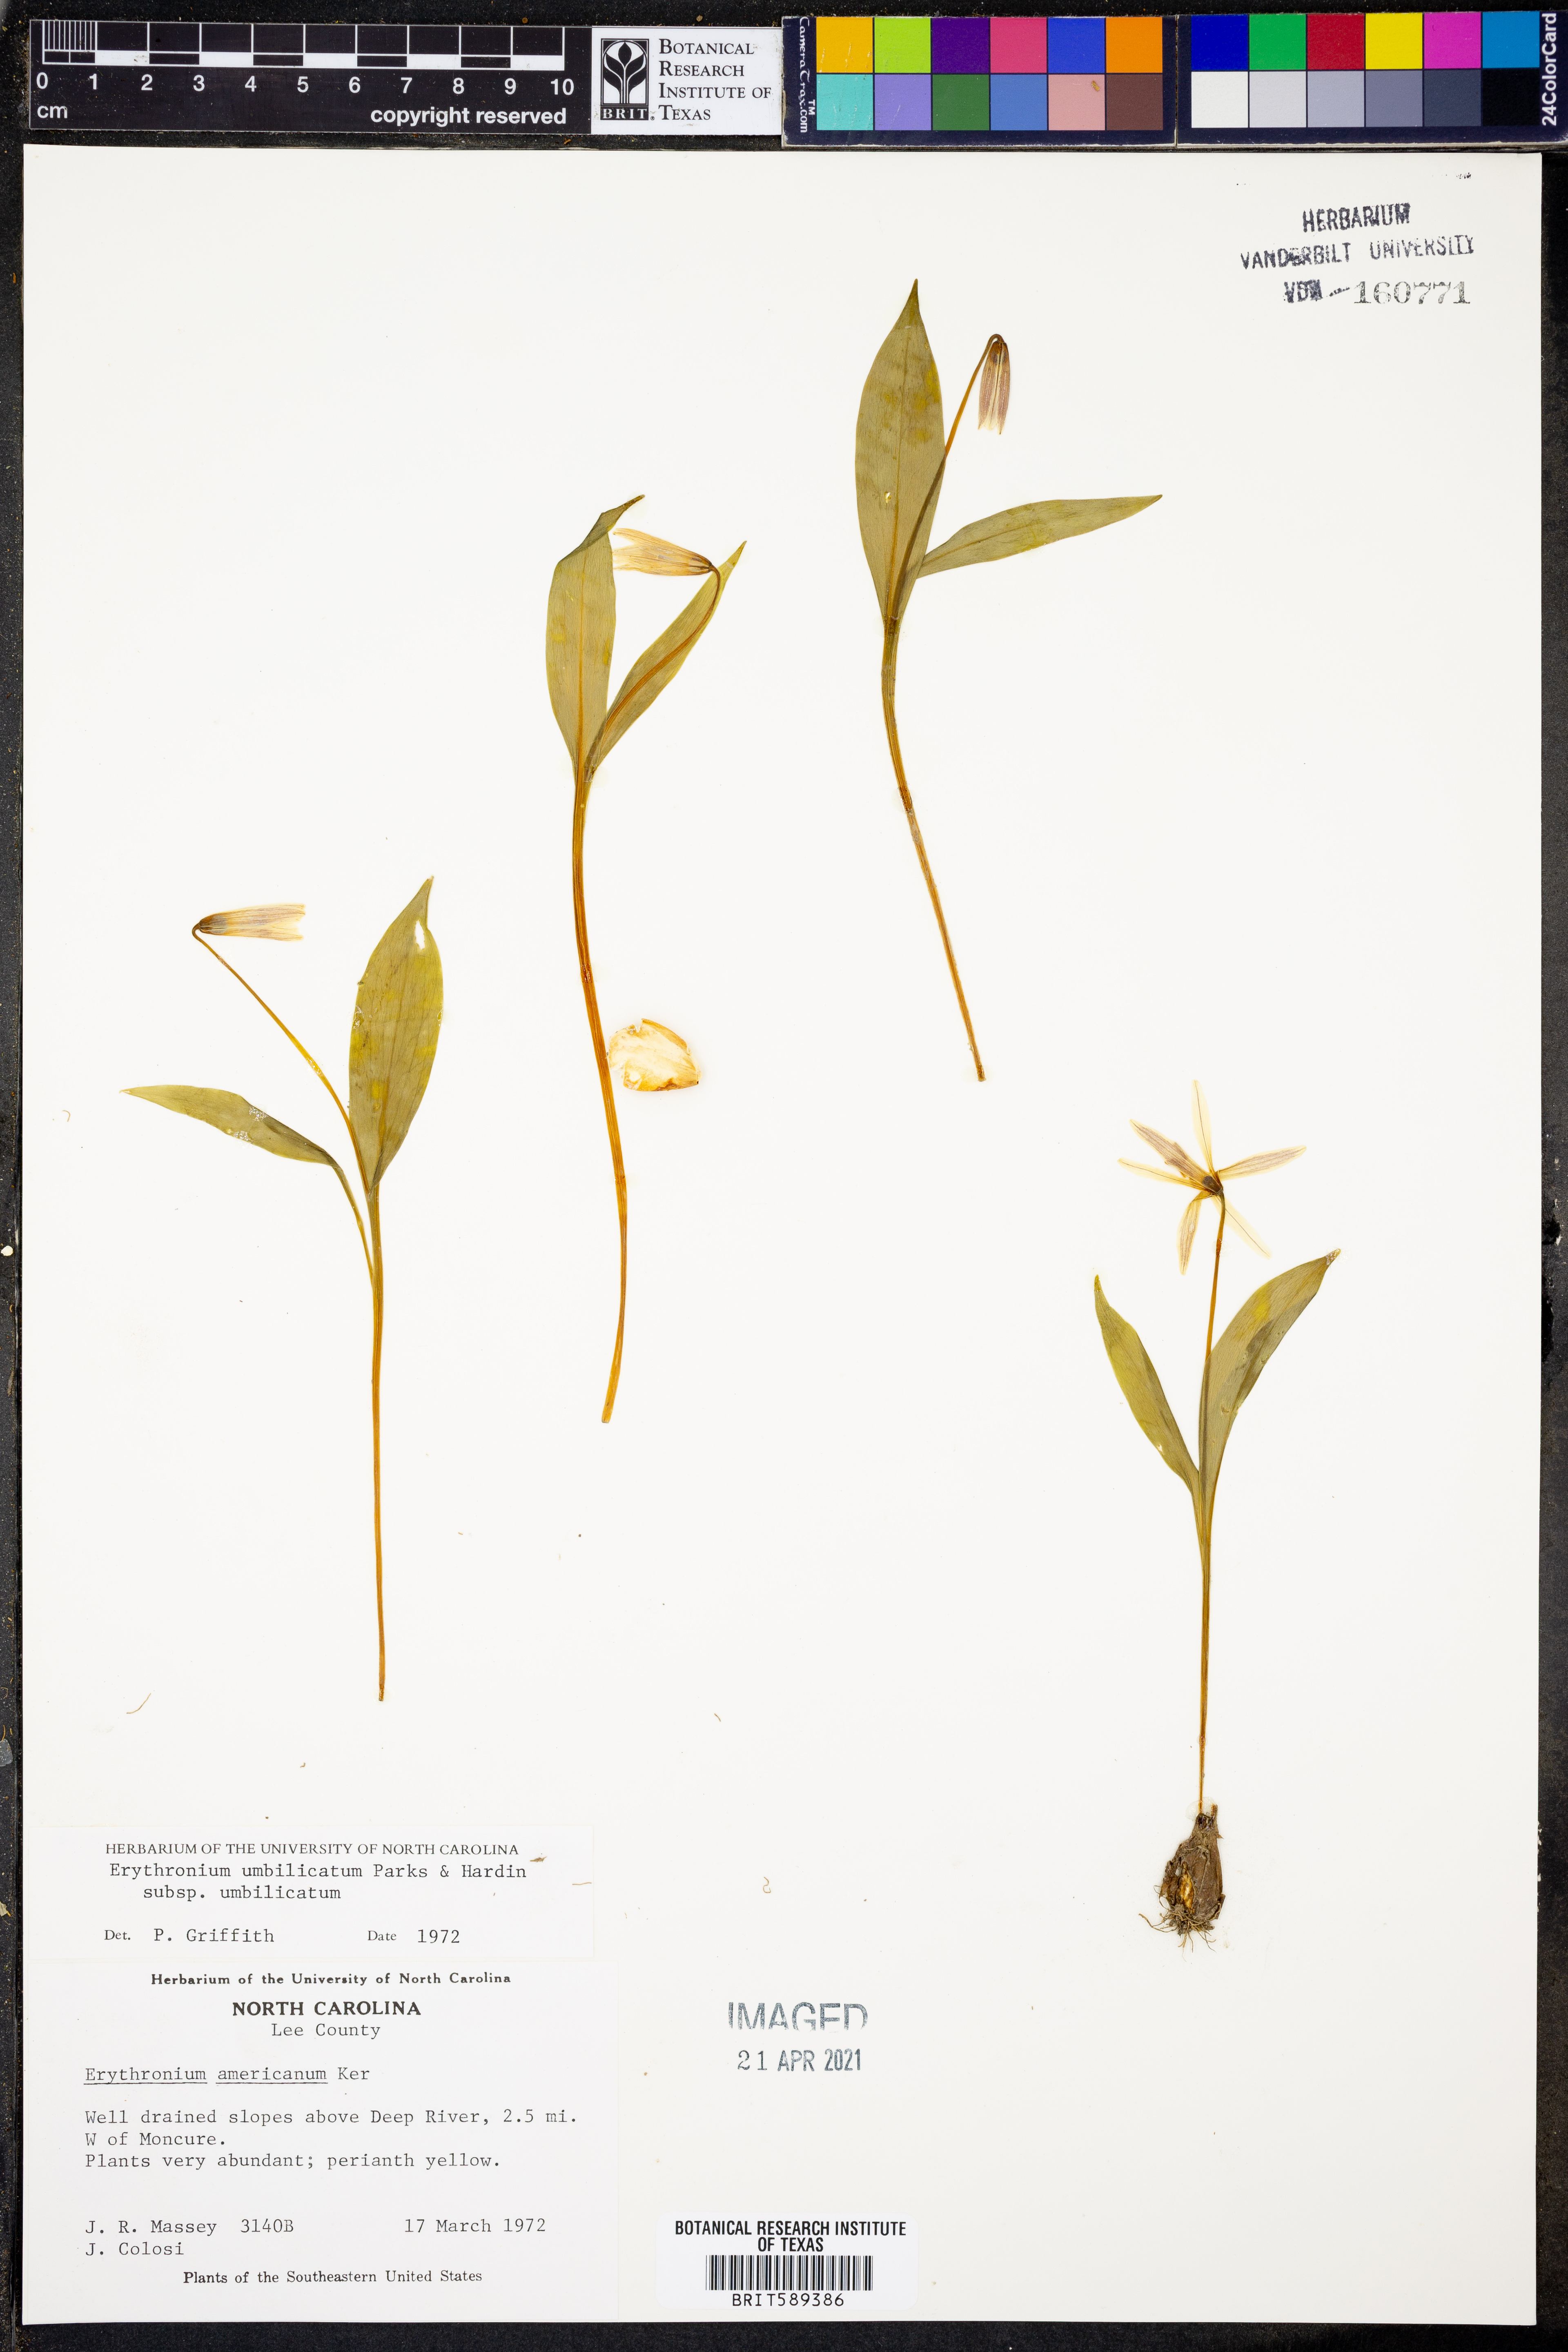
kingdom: Plantae
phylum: Tracheophyta
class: Liliopsida
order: Liliales
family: Liliaceae
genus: Erythronium
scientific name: Erythronium umbilicatum
